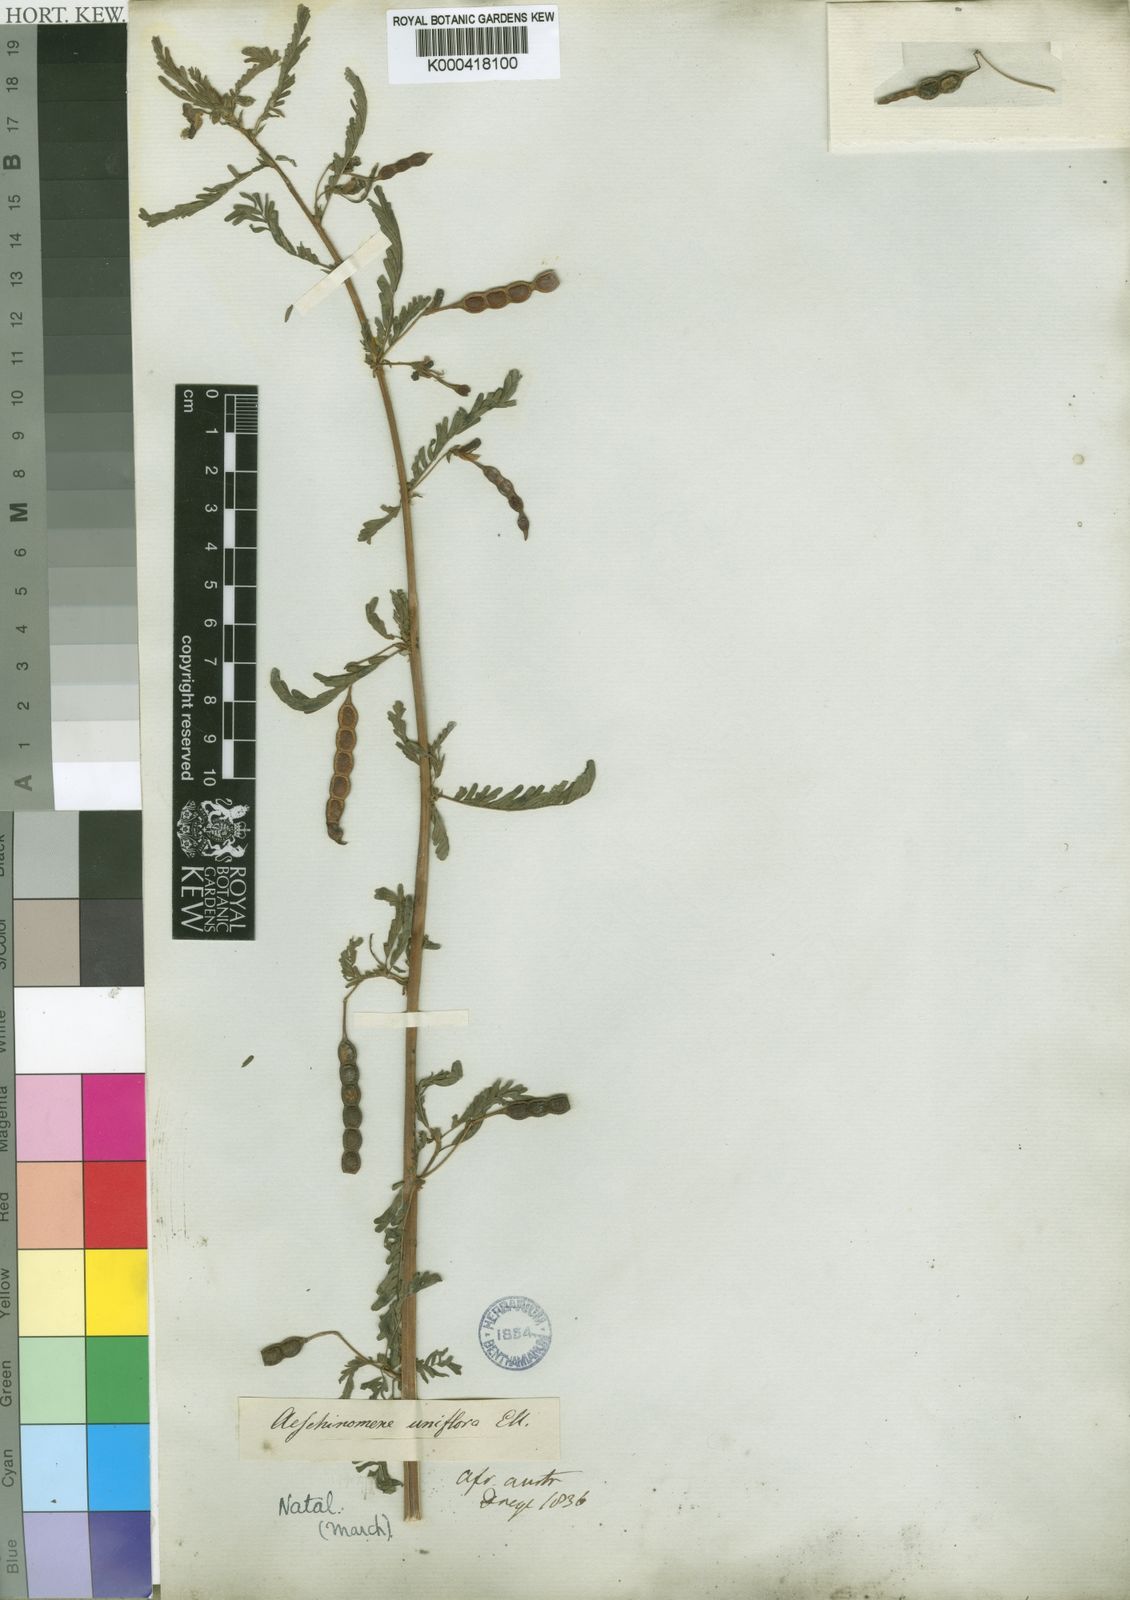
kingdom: Plantae
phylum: Tracheophyta
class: Magnoliopsida
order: Fabales
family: Fabaceae
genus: Aeschynomene
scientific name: Aeschynomene uniflora
